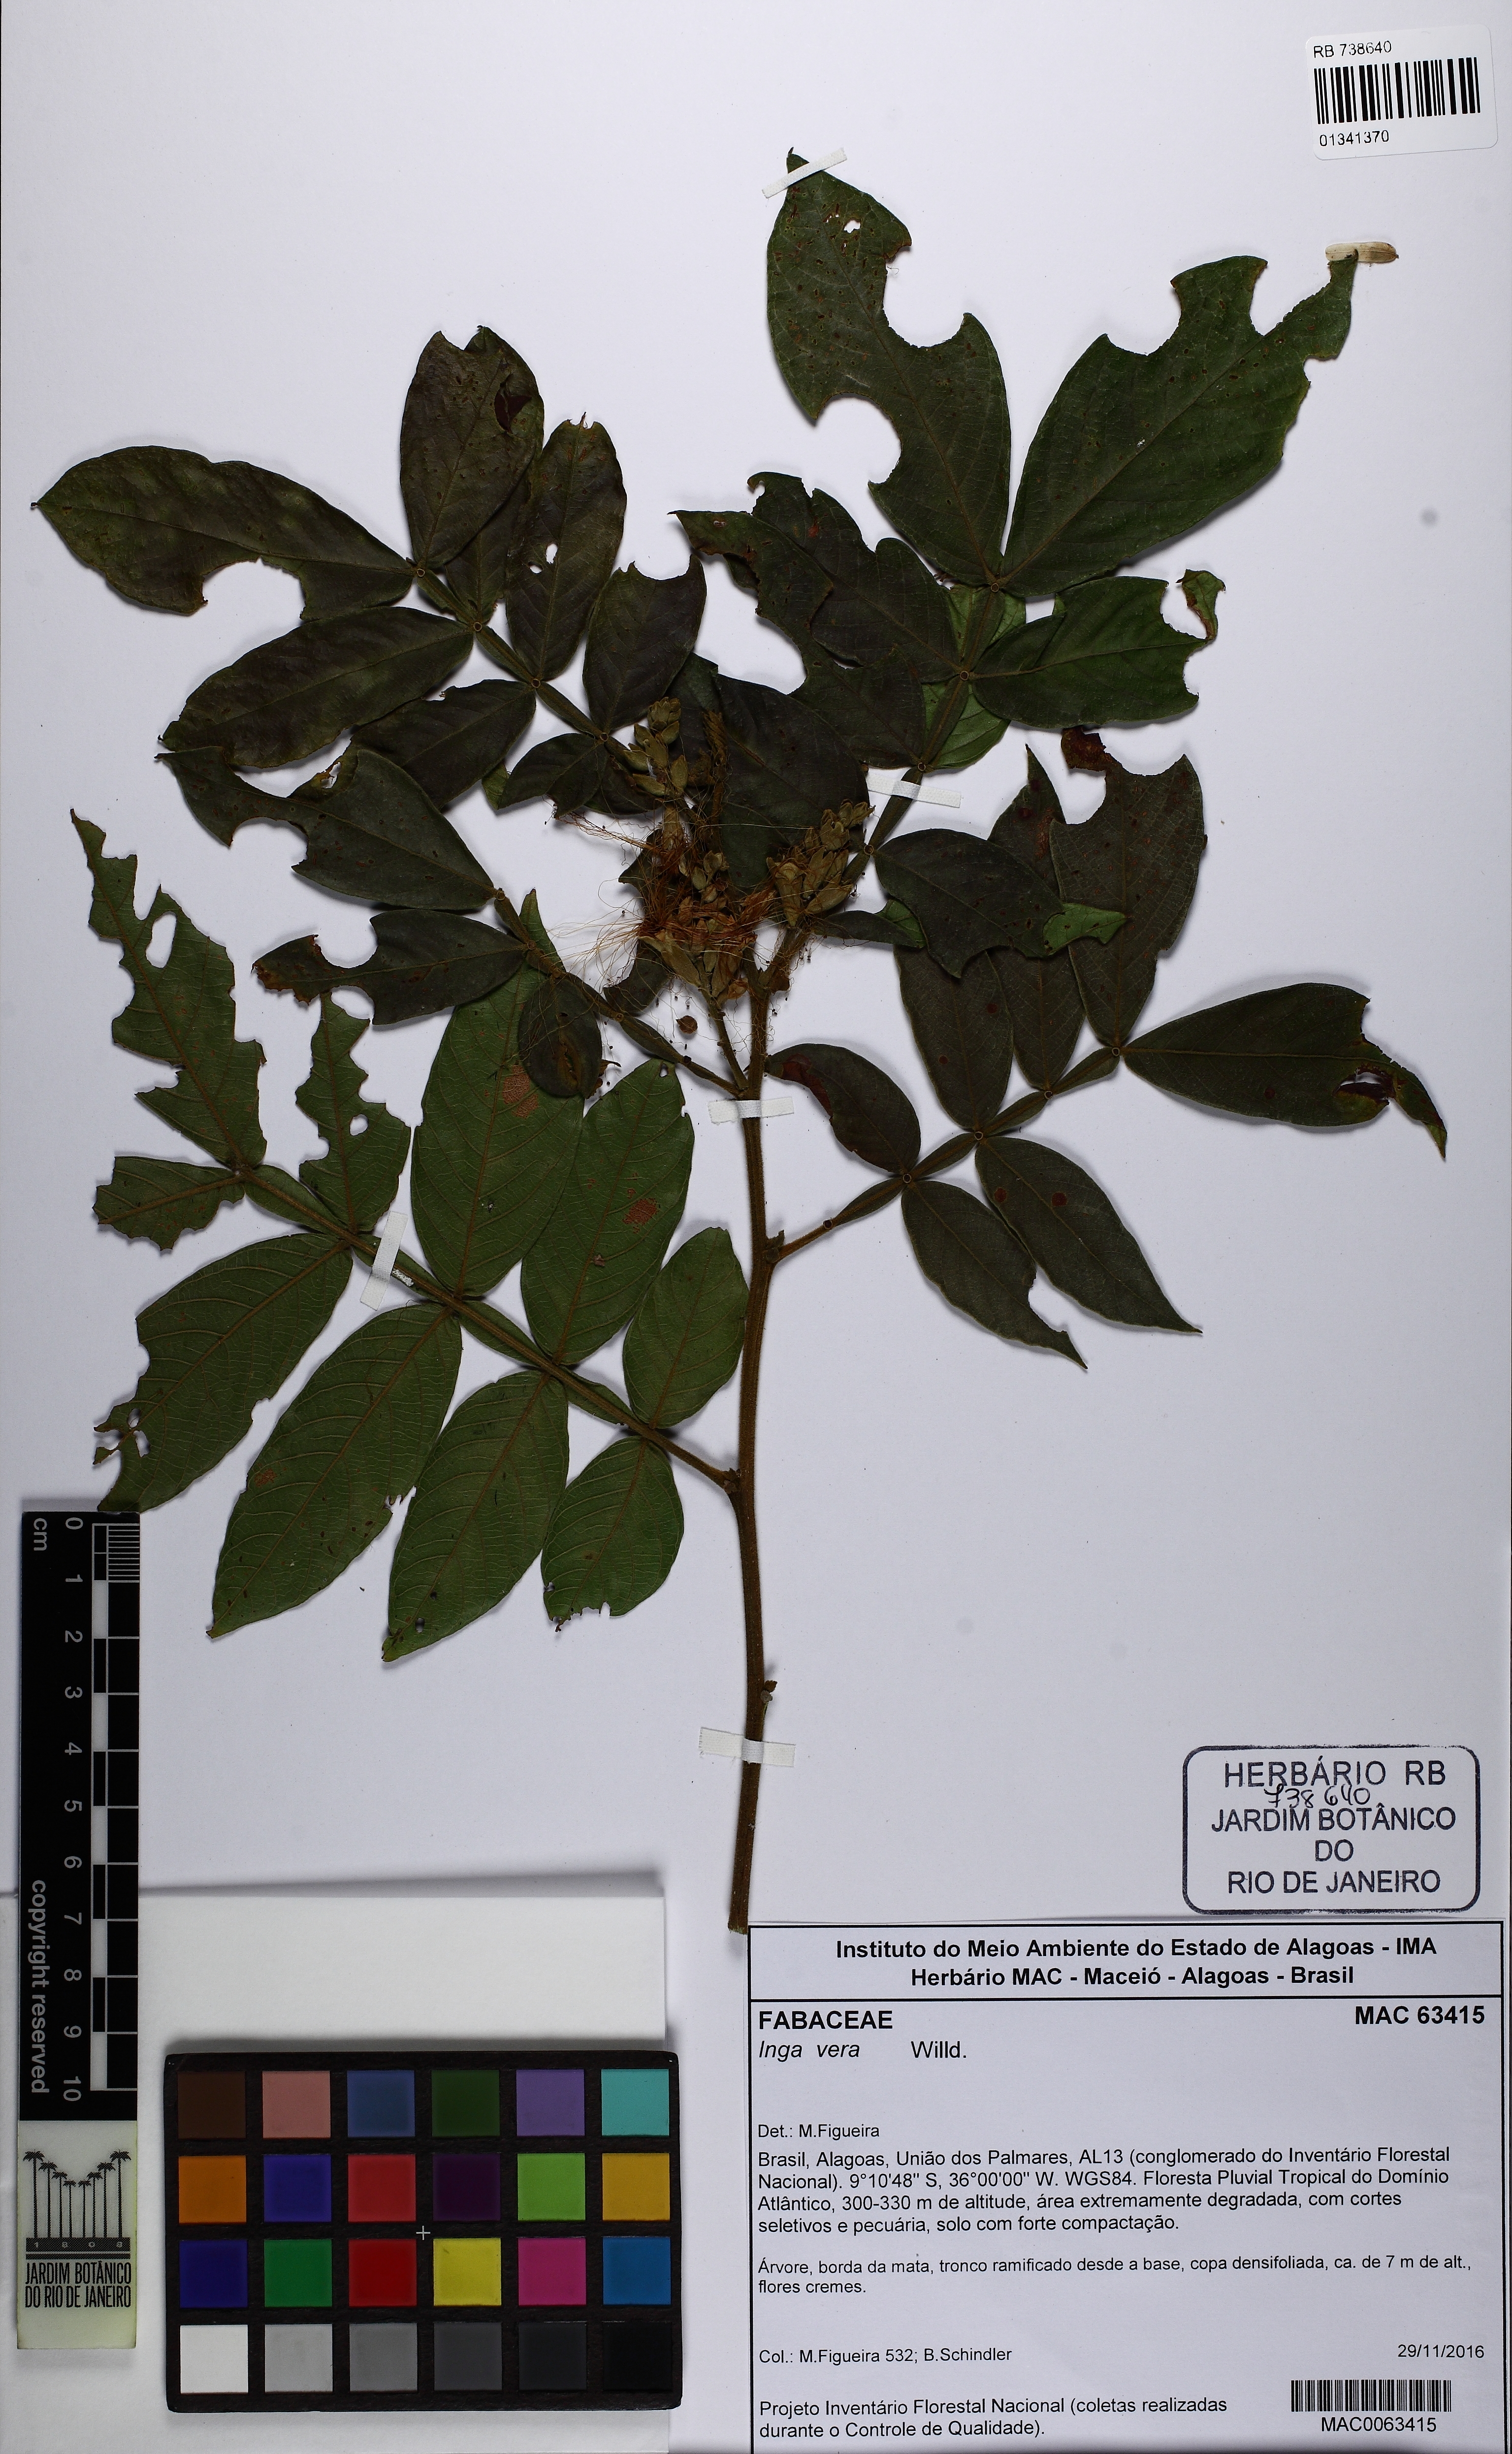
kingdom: Plantae
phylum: Tracheophyta
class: Magnoliopsida
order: Fabales
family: Fabaceae
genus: Inga
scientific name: Inga vera
